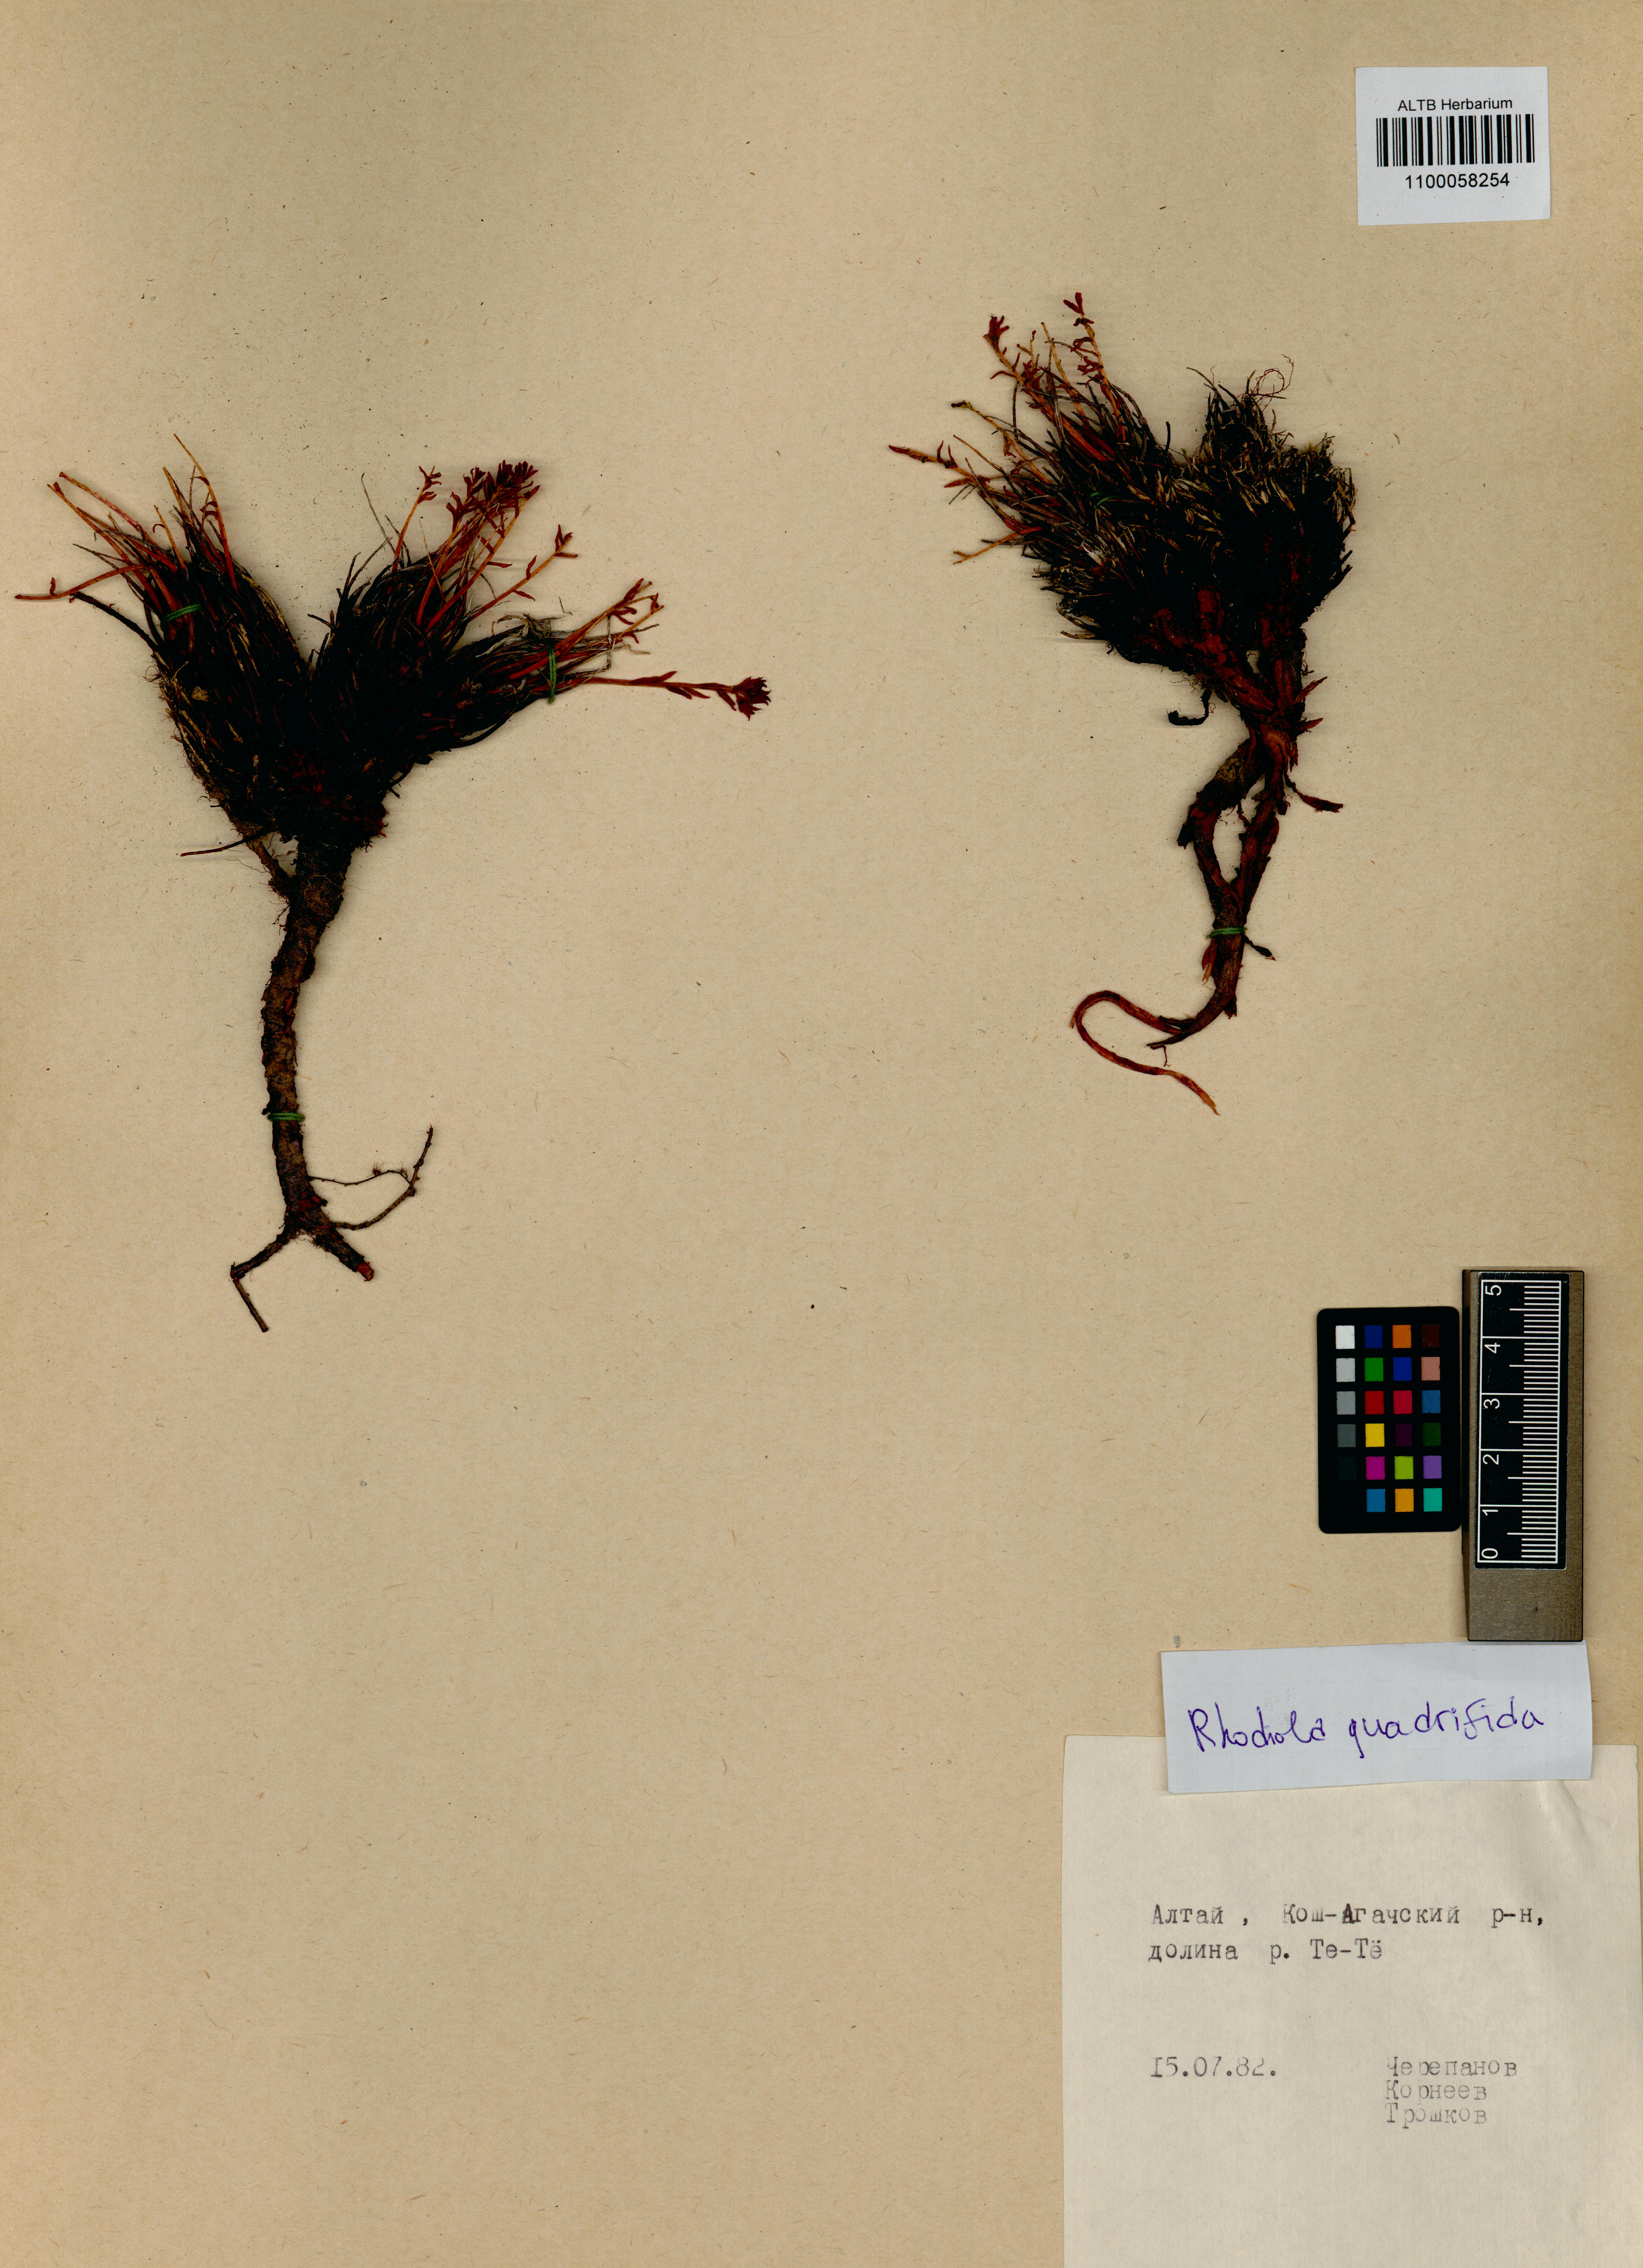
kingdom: Plantae
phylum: Tracheophyta
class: Magnoliopsida
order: Saxifragales
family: Crassulaceae
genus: Rhodiola
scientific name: Rhodiola quadrifida
